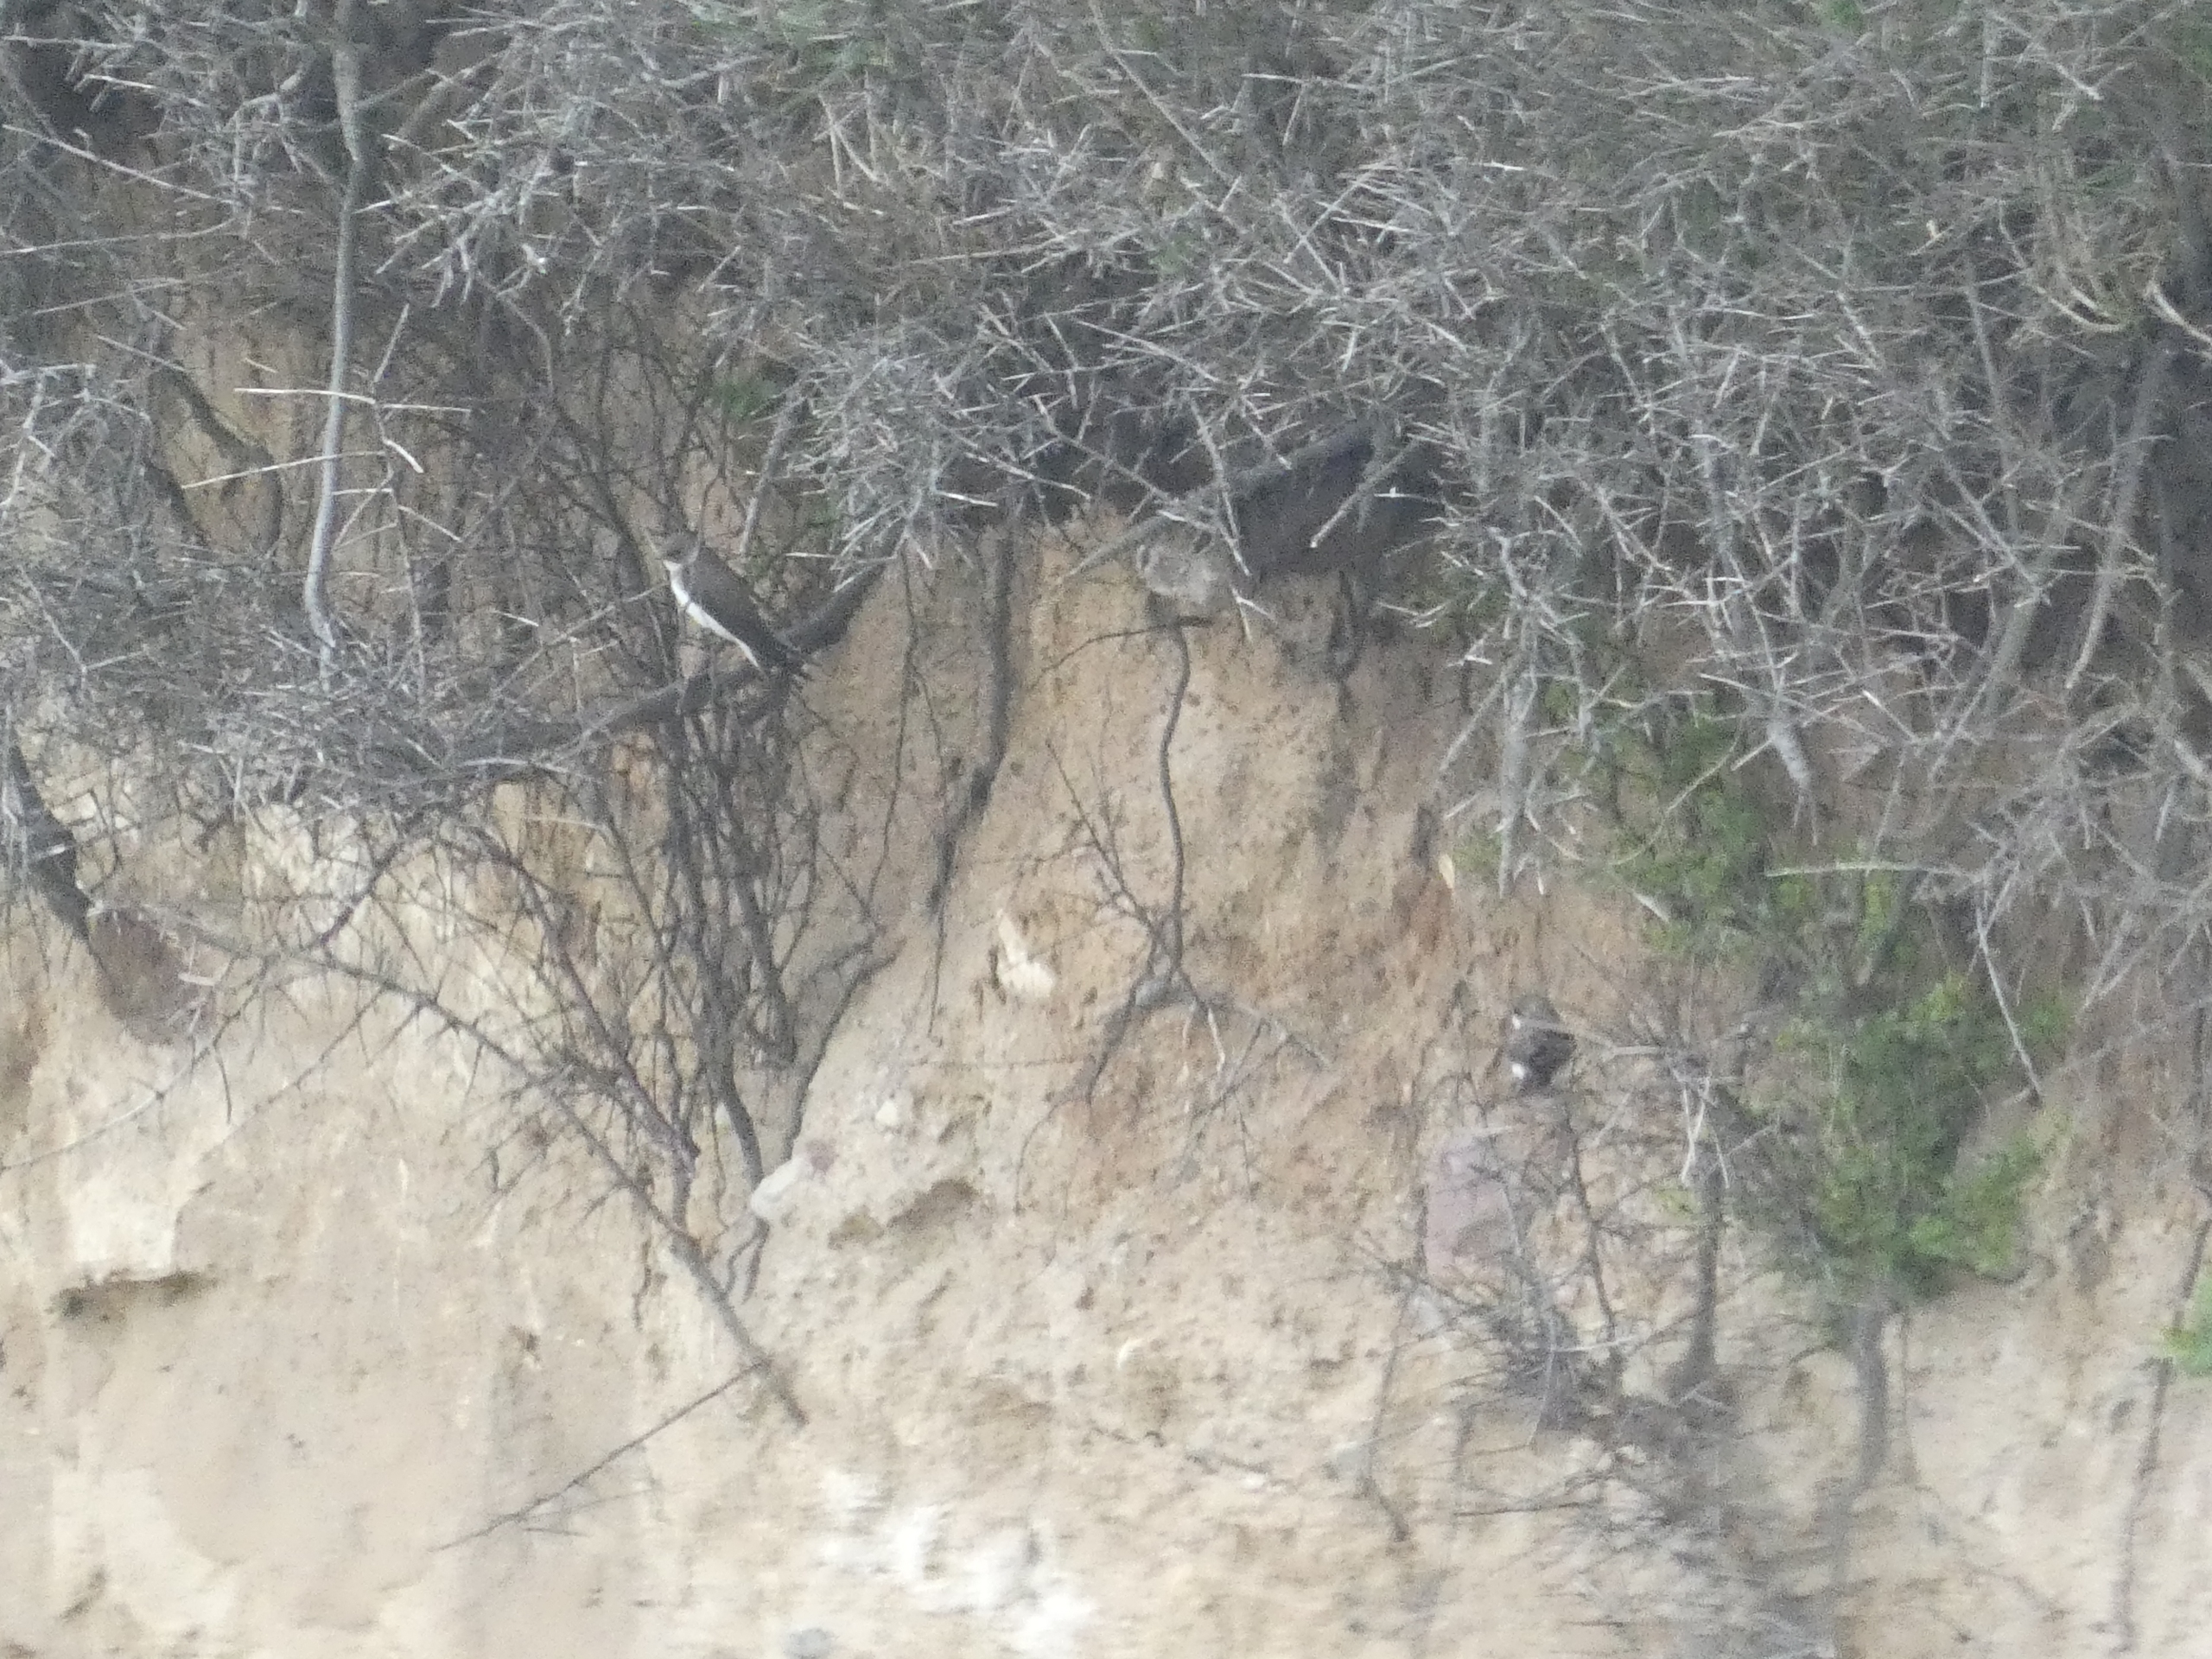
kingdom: Animalia
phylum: Chordata
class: Aves
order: Passeriformes
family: Hirundinidae
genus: Riparia
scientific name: Riparia riparia
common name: Digesvale
